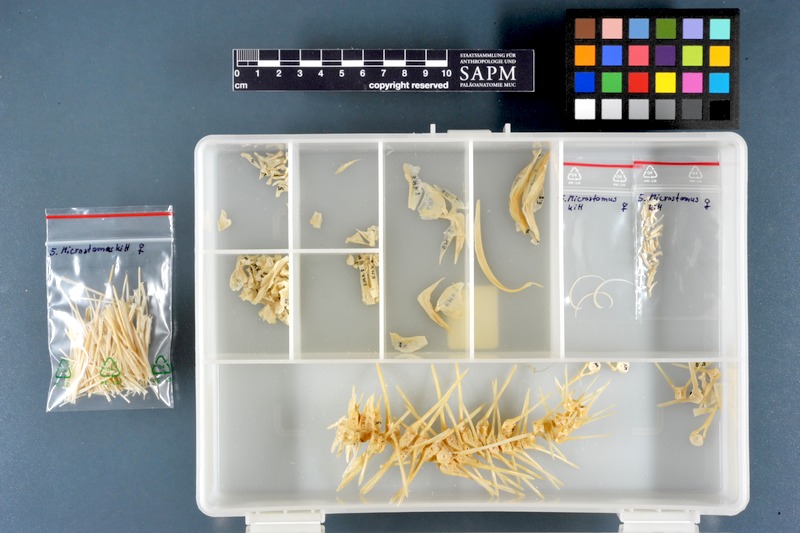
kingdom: Animalia
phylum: Chordata
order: Pleuronectiformes
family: Pleuronectidae
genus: Microstomus
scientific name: Microstomus kitt
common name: Lemon sole
